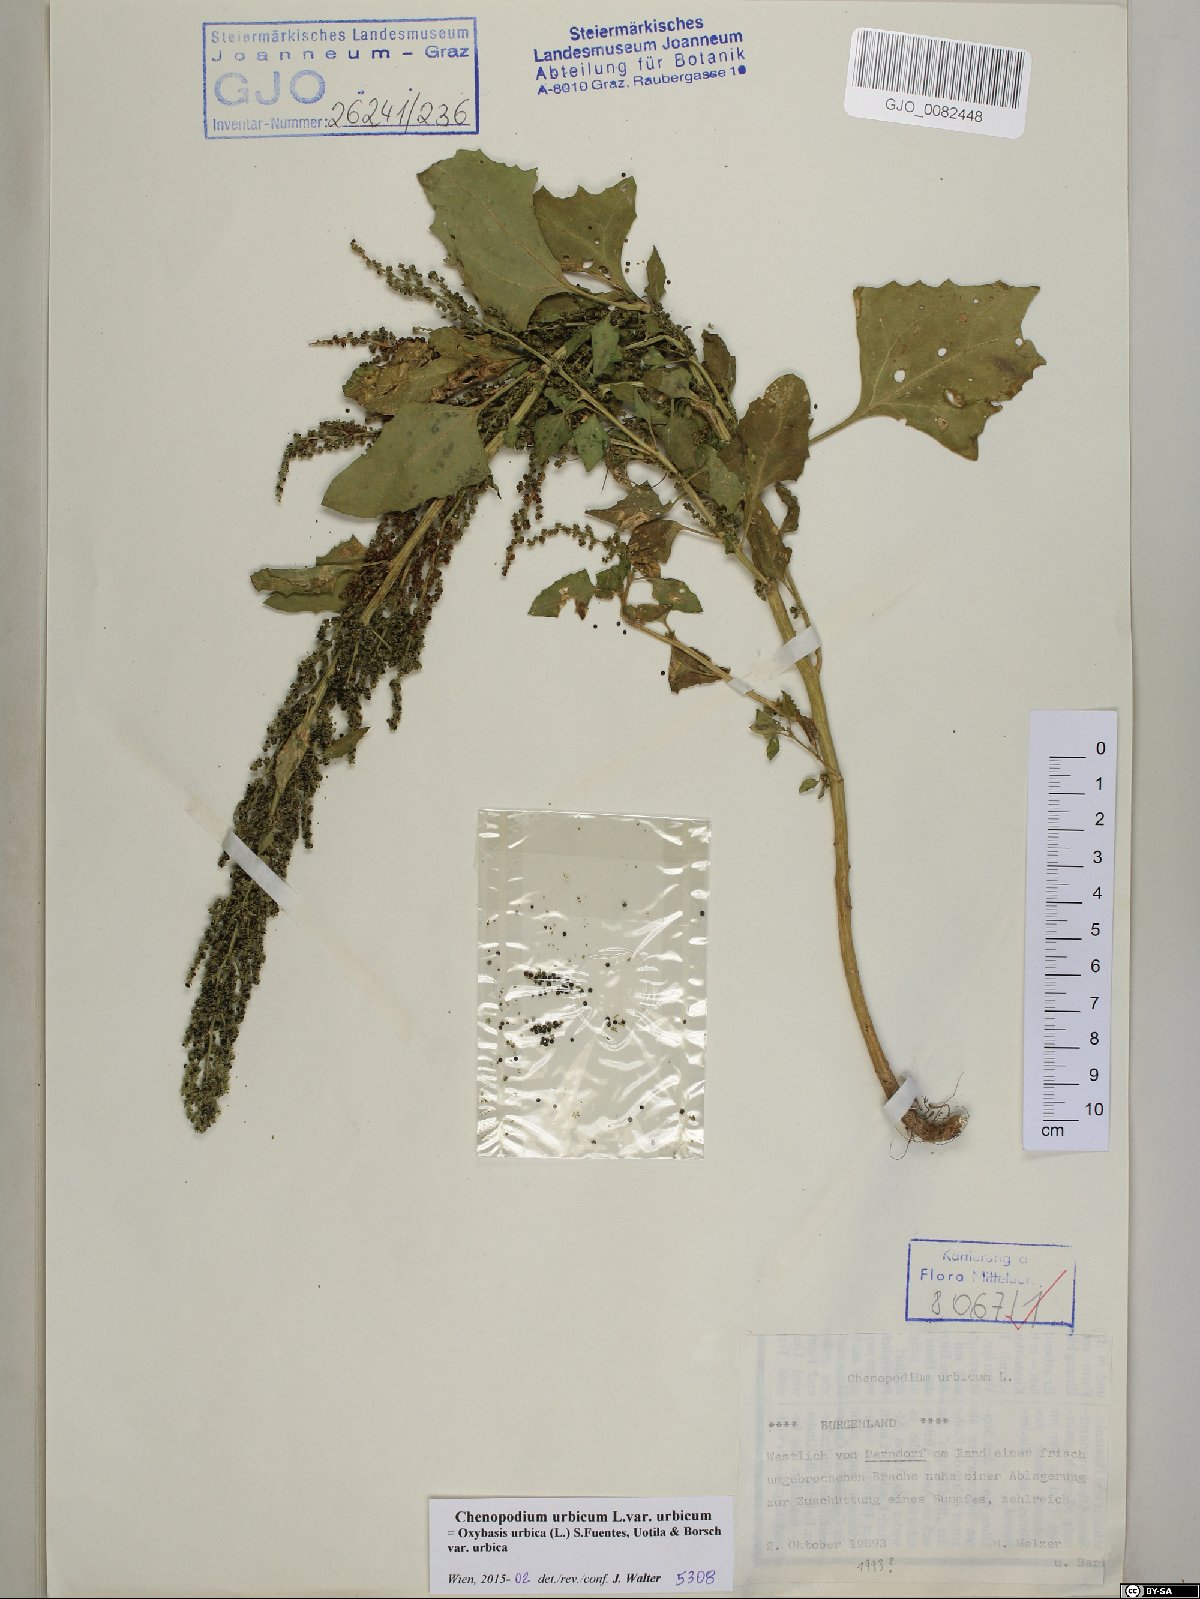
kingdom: Plantae
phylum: Tracheophyta
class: Magnoliopsida
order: Caryophyllales
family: Amaranthaceae
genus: Oxybasis
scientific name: Oxybasis urbica
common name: City goosefoot
